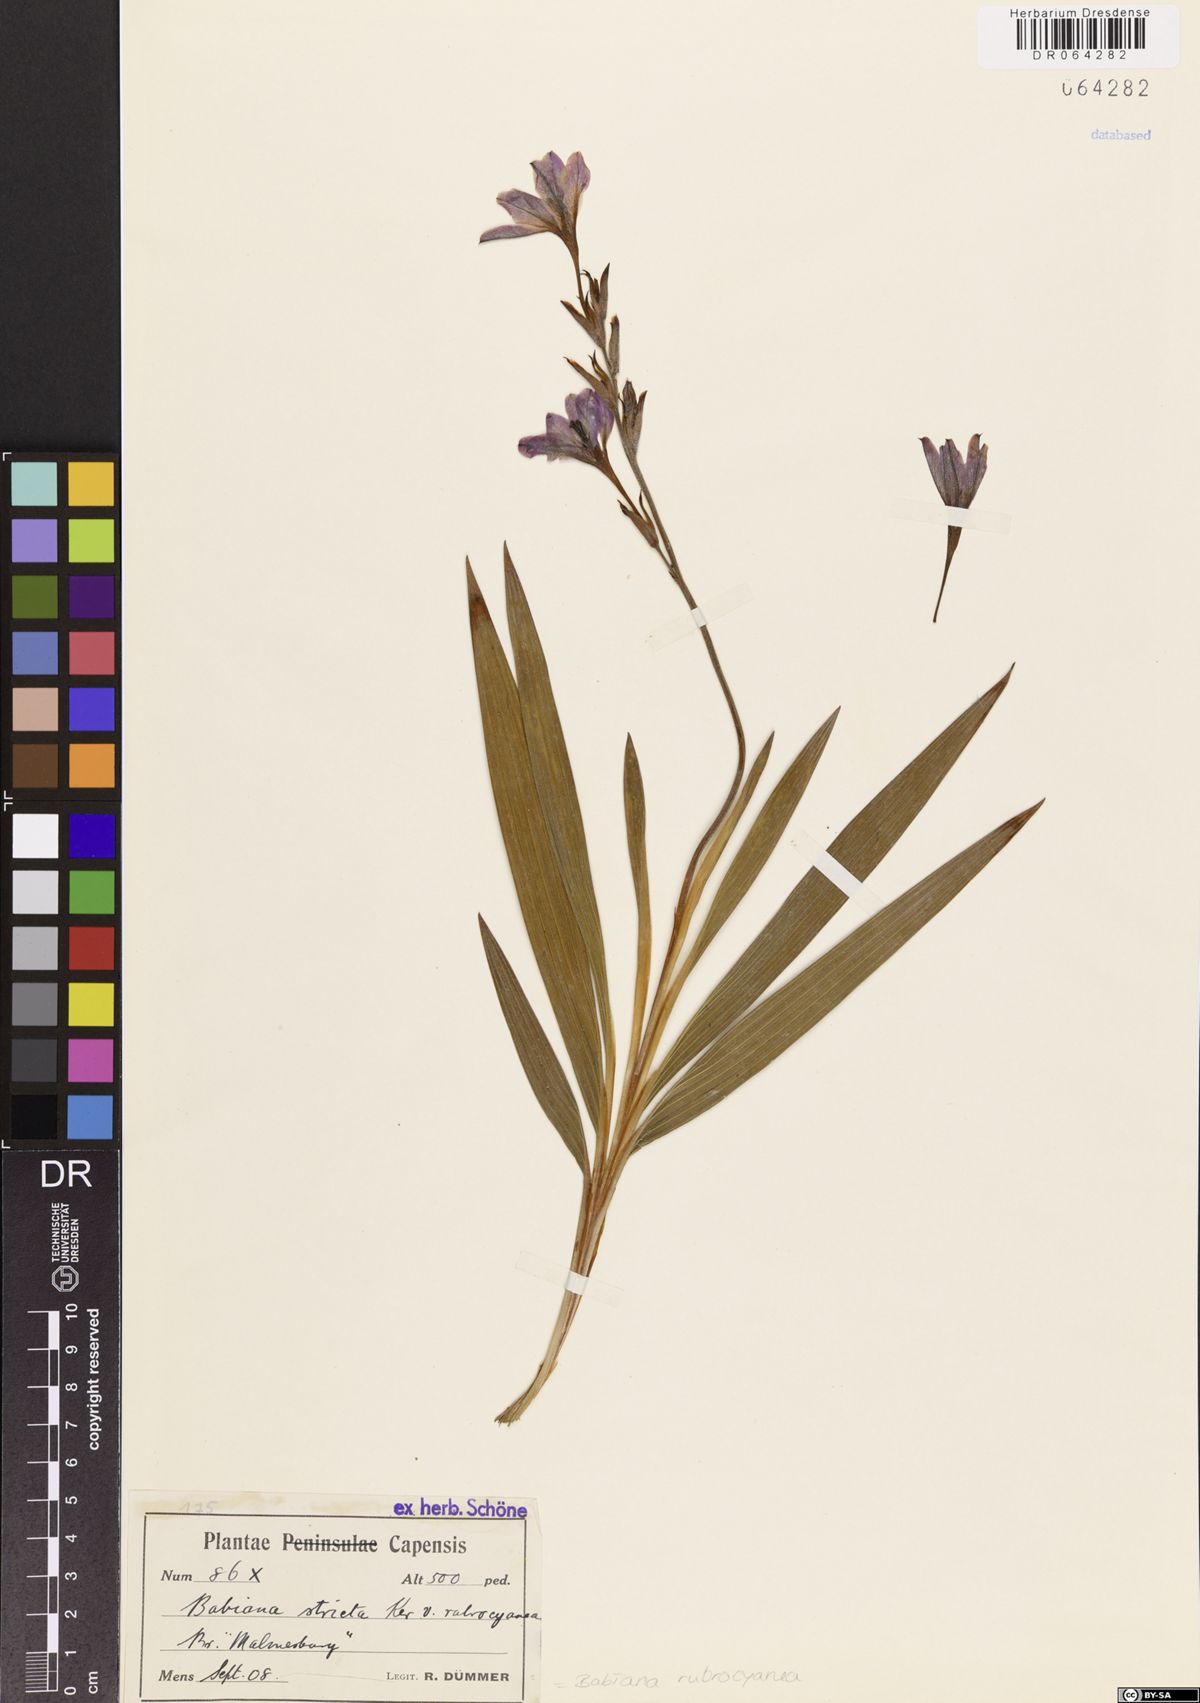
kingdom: Plantae
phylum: Tracheophyta
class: Liliopsida
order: Asparagales
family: Iridaceae
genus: Babiana
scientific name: Babiana rubrocyanea
